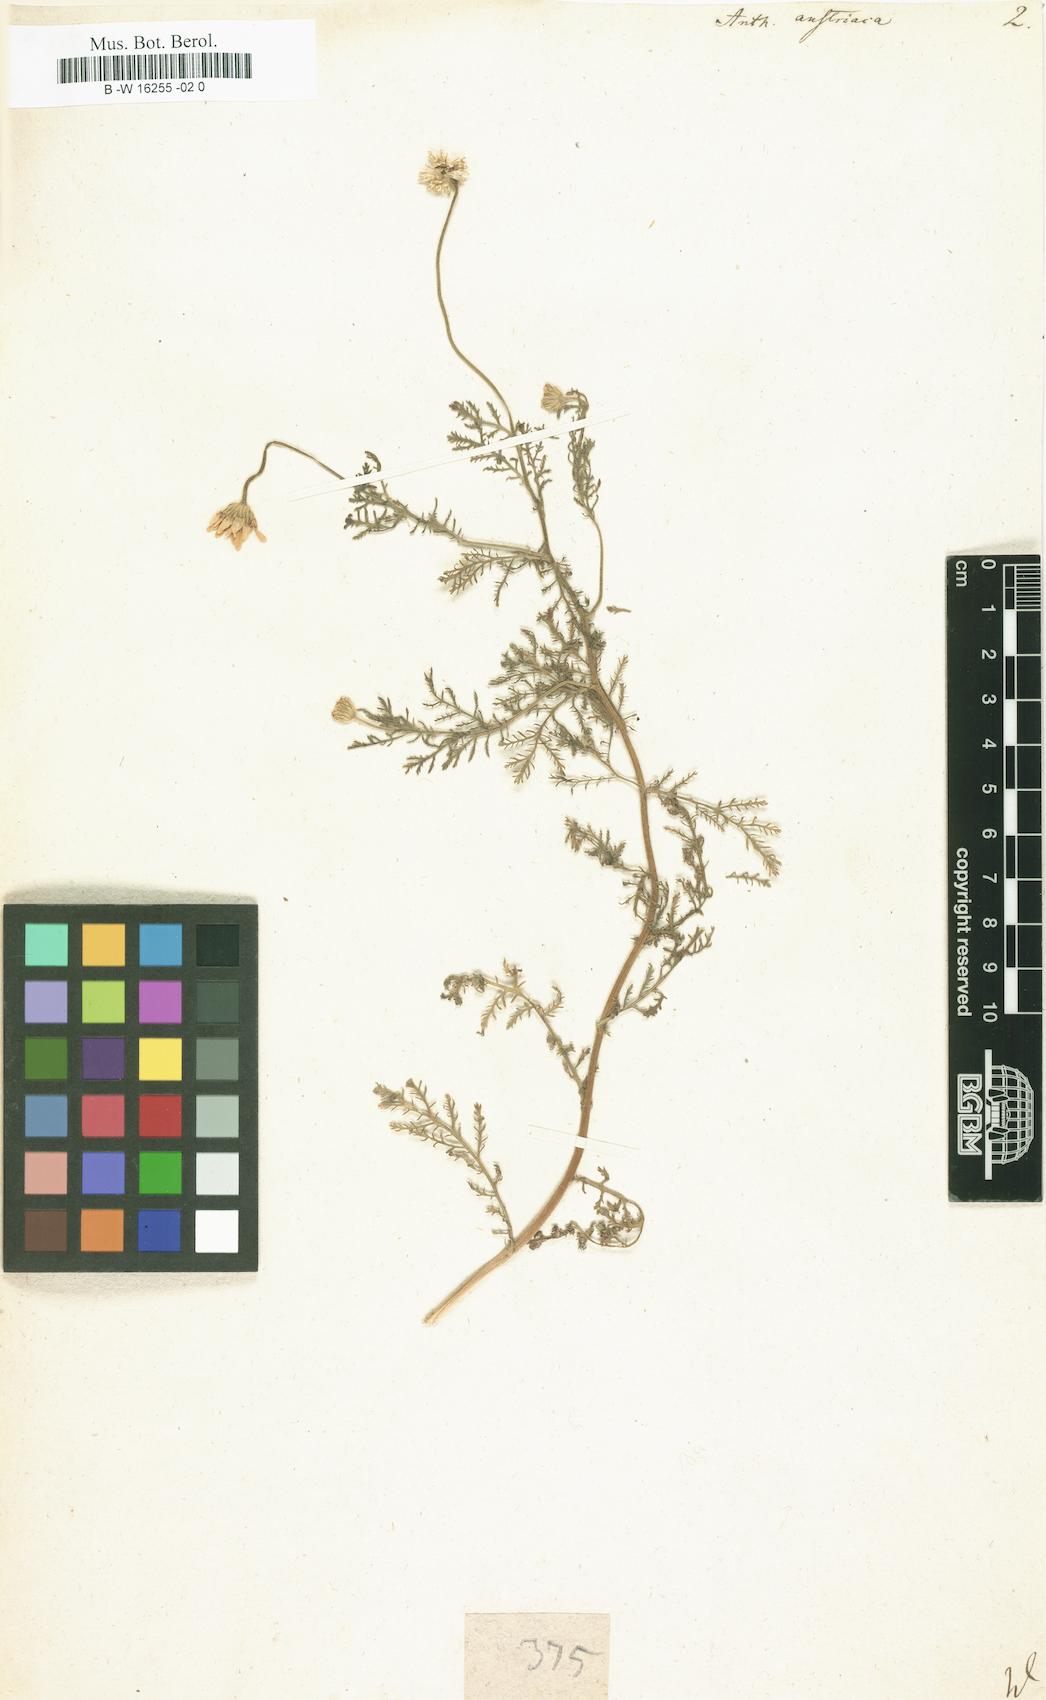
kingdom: Plantae
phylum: Tracheophyta
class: Magnoliopsida
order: Asterales
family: Asteraceae
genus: Cota
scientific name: Cota austriaca
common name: Austrian chamomile
